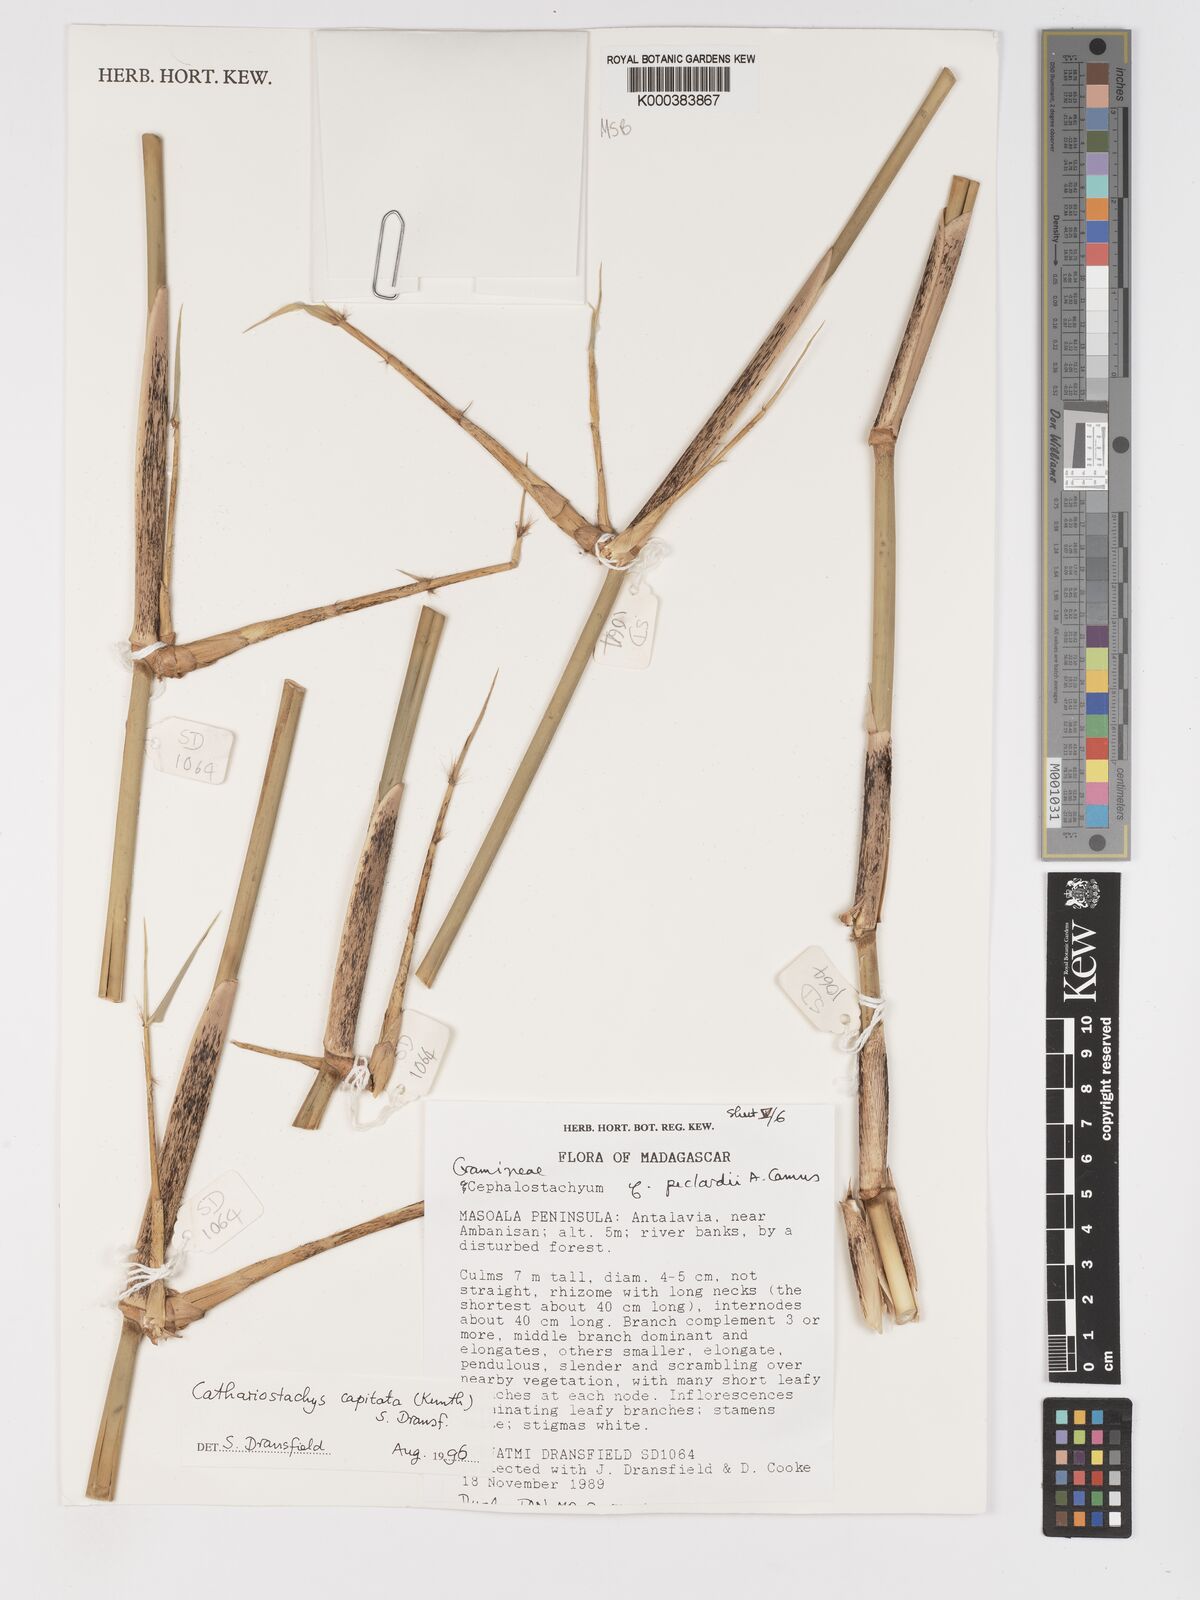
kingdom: Plantae
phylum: Tracheophyta
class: Liliopsida
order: Poales
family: Poaceae
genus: Cathariostachys
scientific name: Cathariostachys capitata
